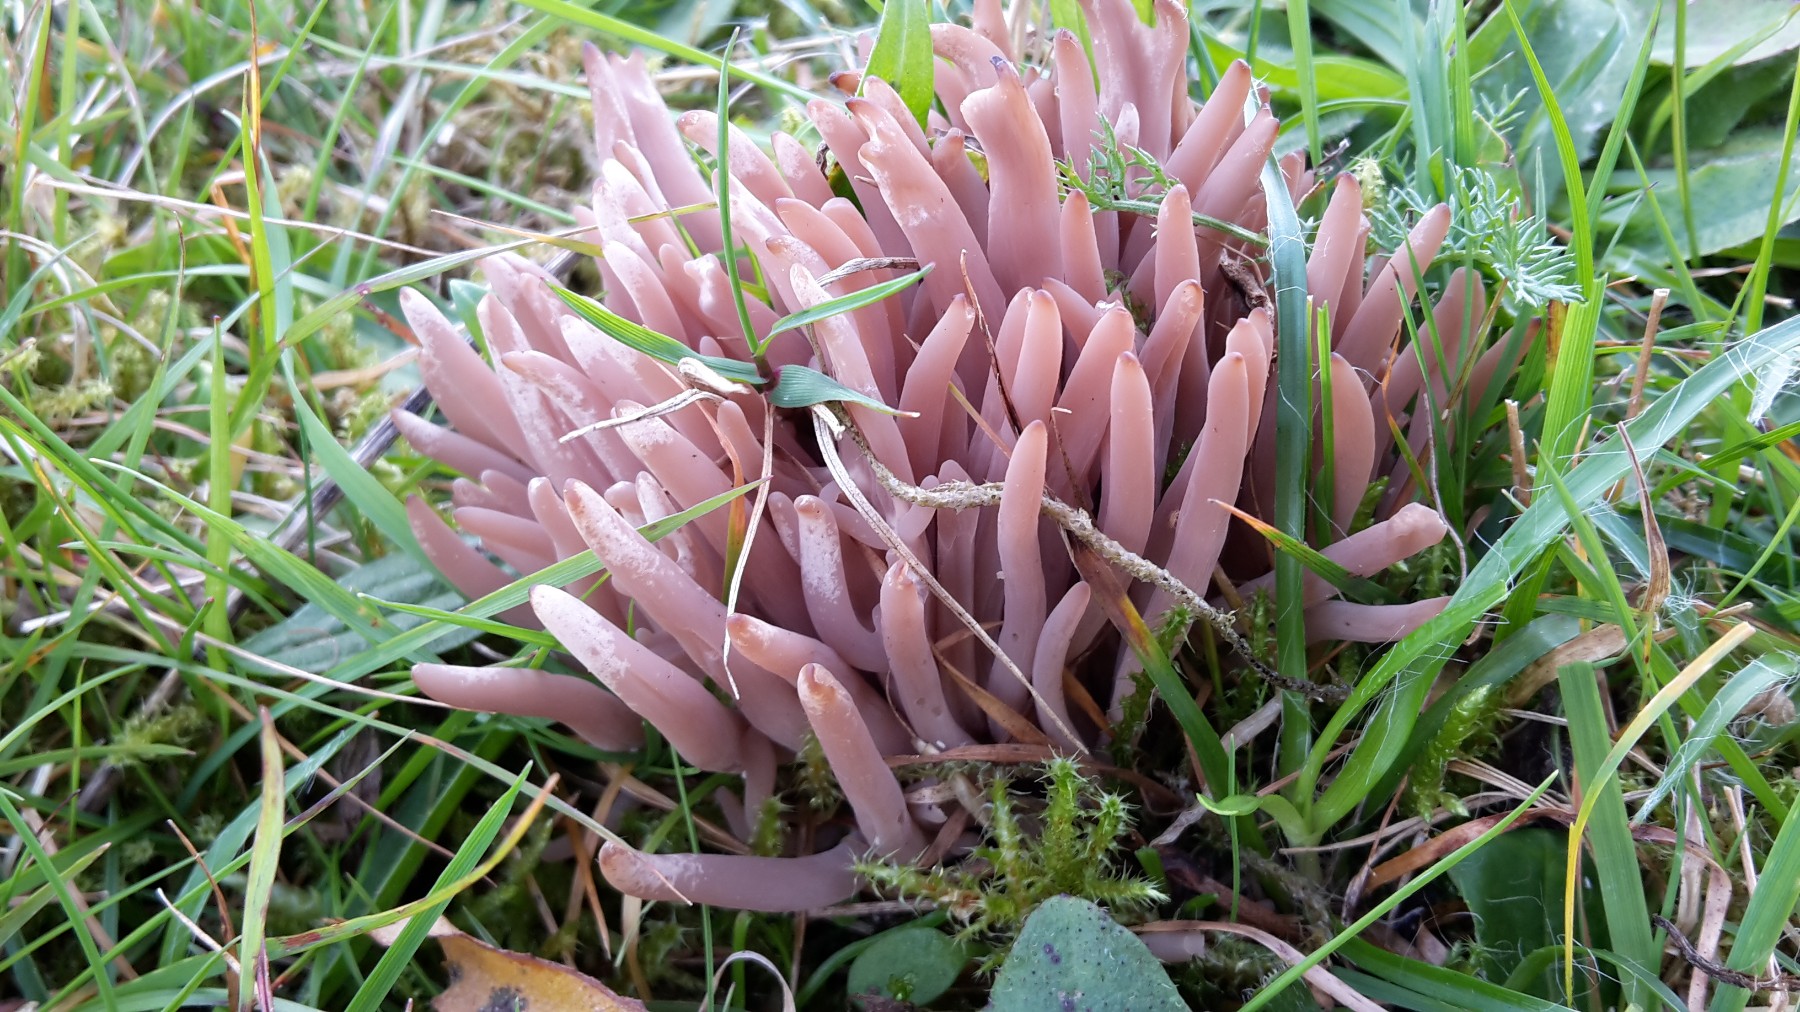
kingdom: Fungi
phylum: Basidiomycota
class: Agaricomycetes
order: Agaricales
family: Clavariaceae
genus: Clavaria
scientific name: Clavaria fumosa
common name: røggrå køllesvamp
